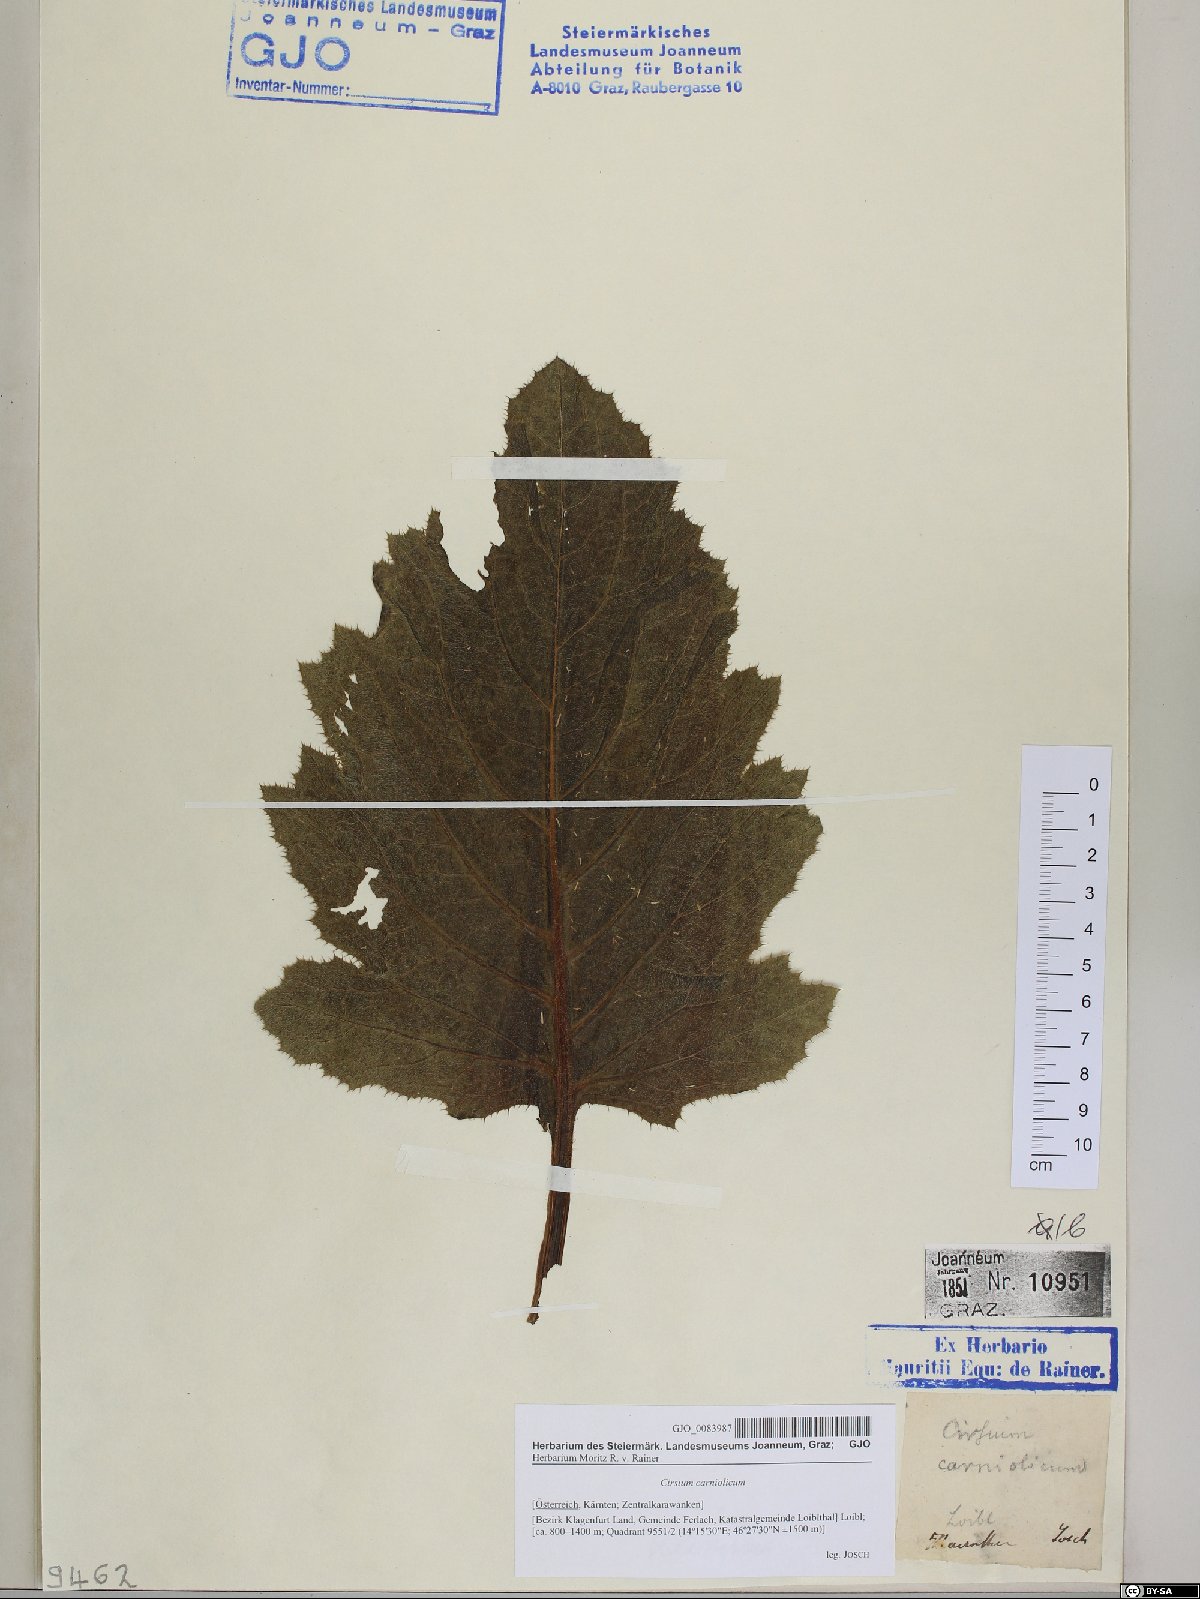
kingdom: Plantae
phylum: Tracheophyta
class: Magnoliopsida
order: Asterales
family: Asteraceae
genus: Cirsium
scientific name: Cirsium carniolicum
